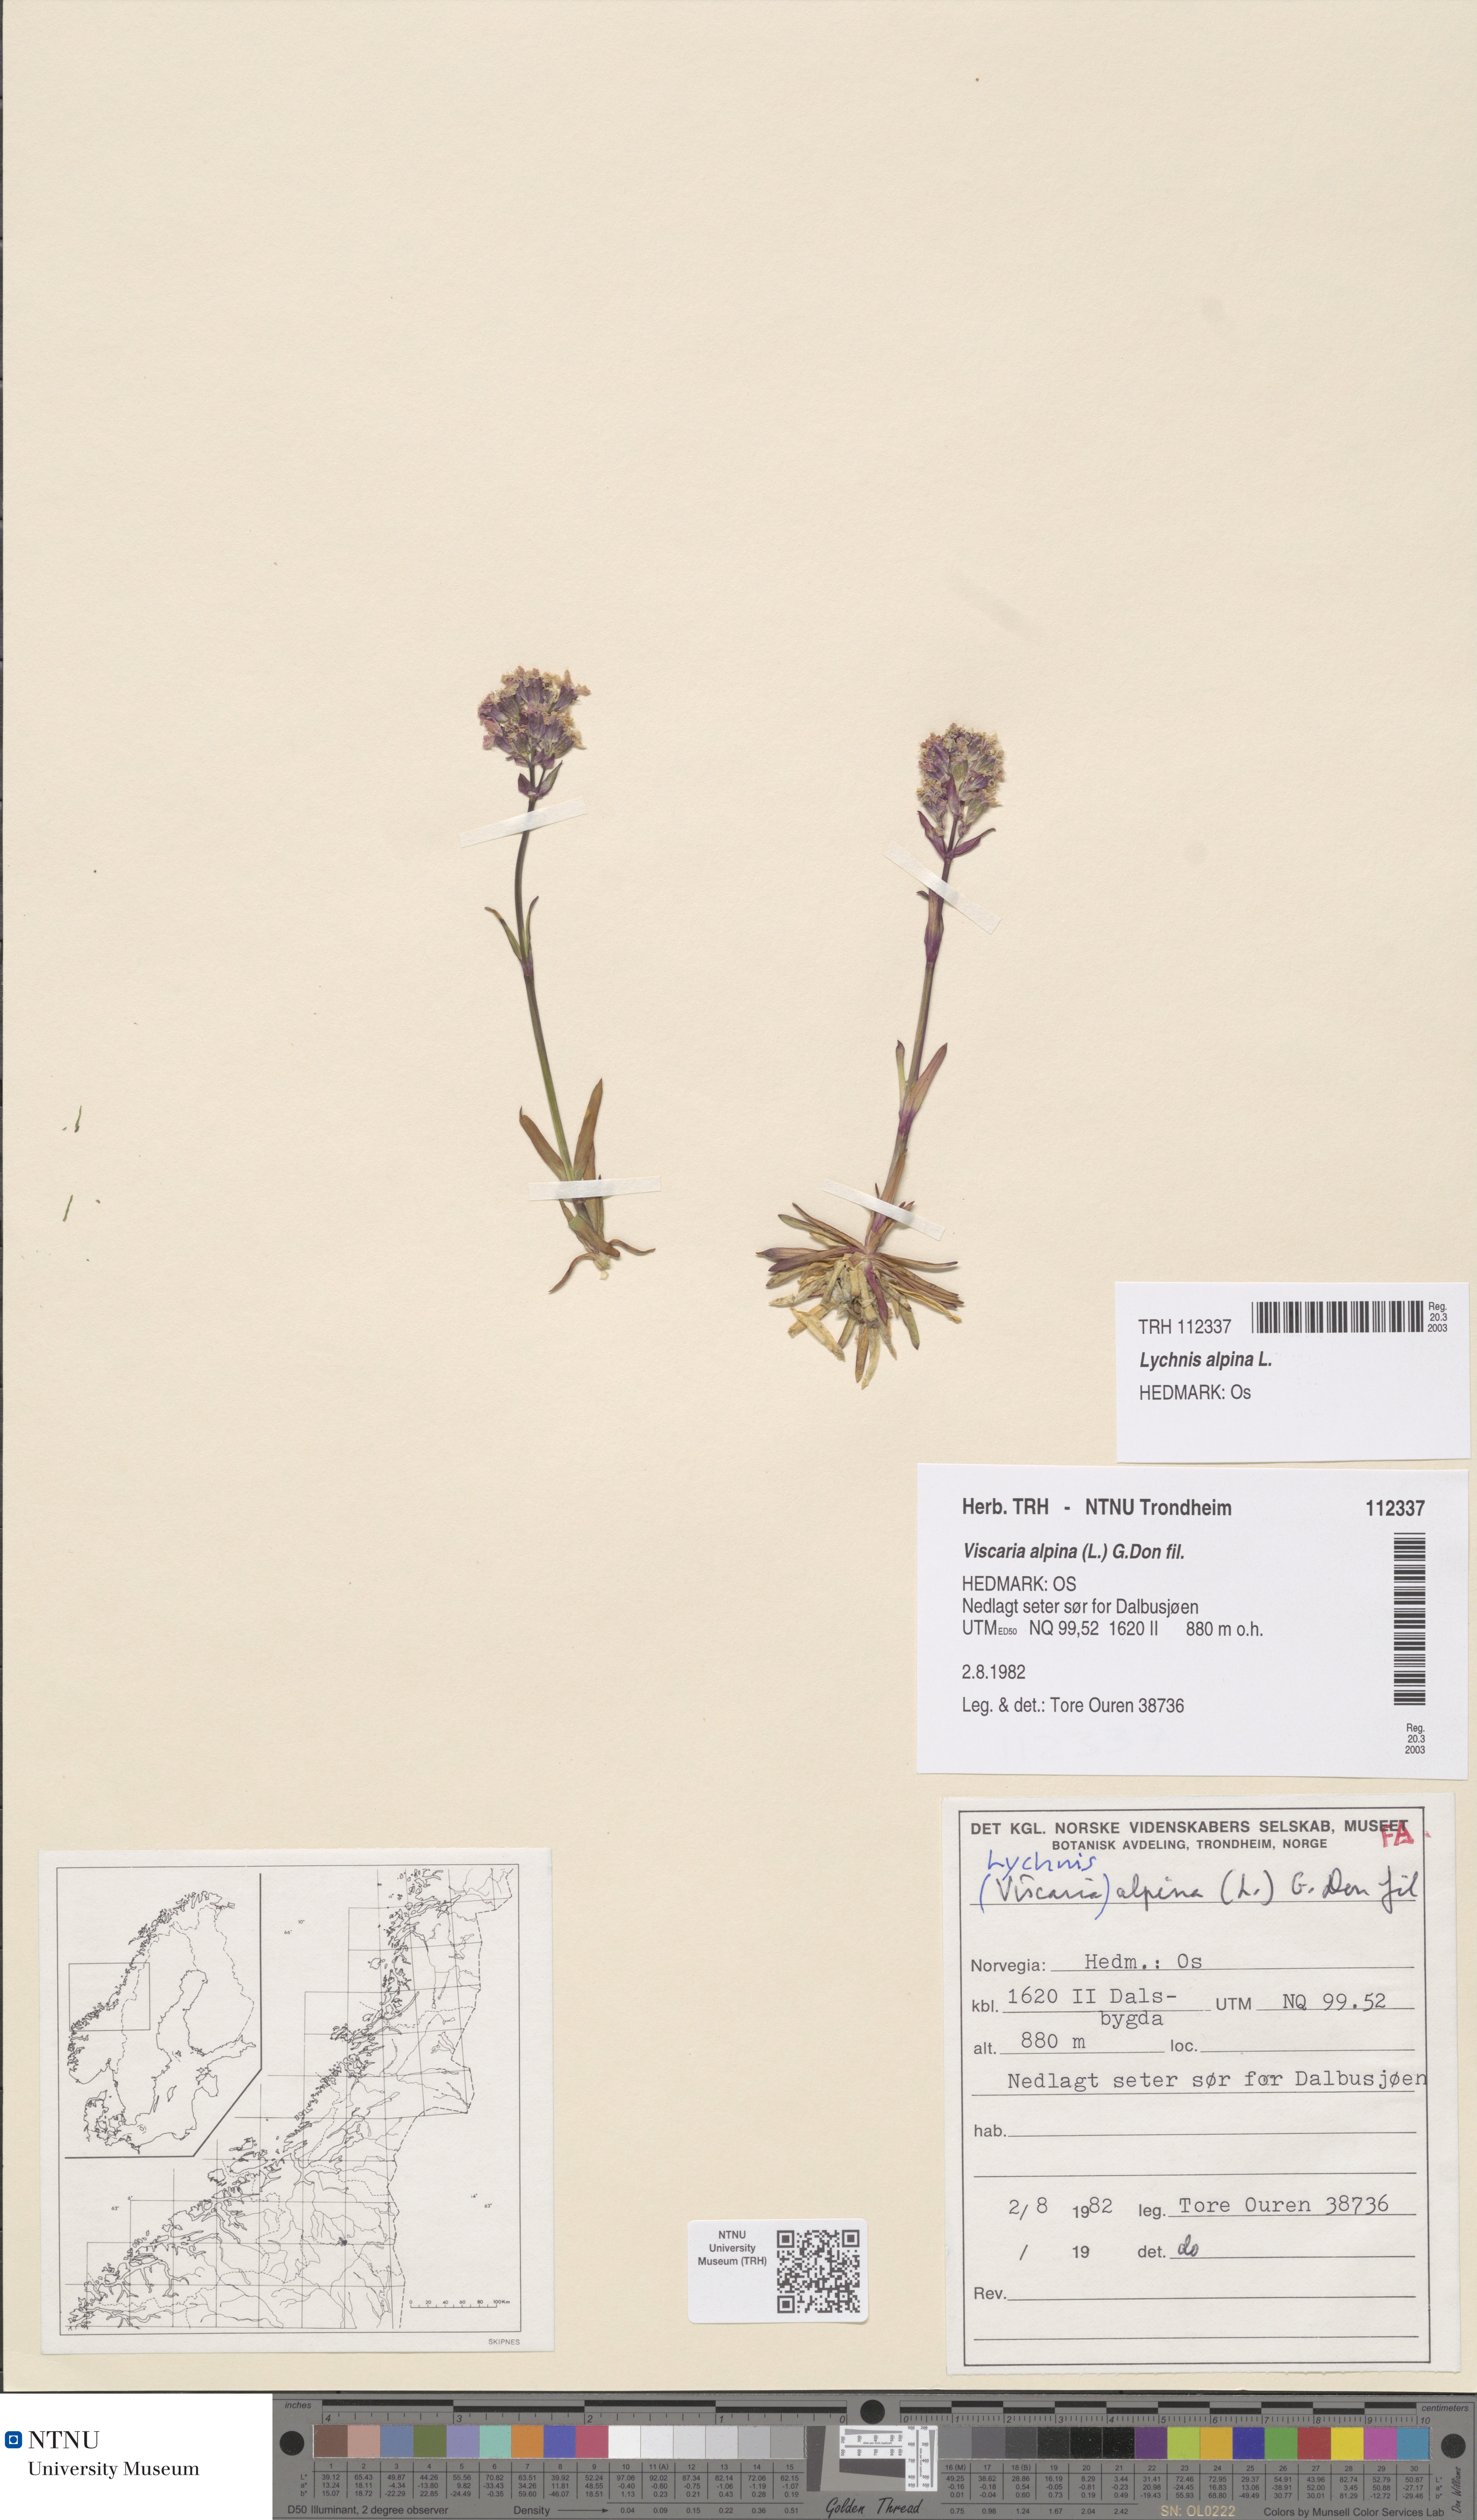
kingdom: Plantae
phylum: Tracheophyta
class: Magnoliopsida
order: Caryophyllales
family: Caryophyllaceae
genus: Viscaria
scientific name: Viscaria alpina
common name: Alpine campion
